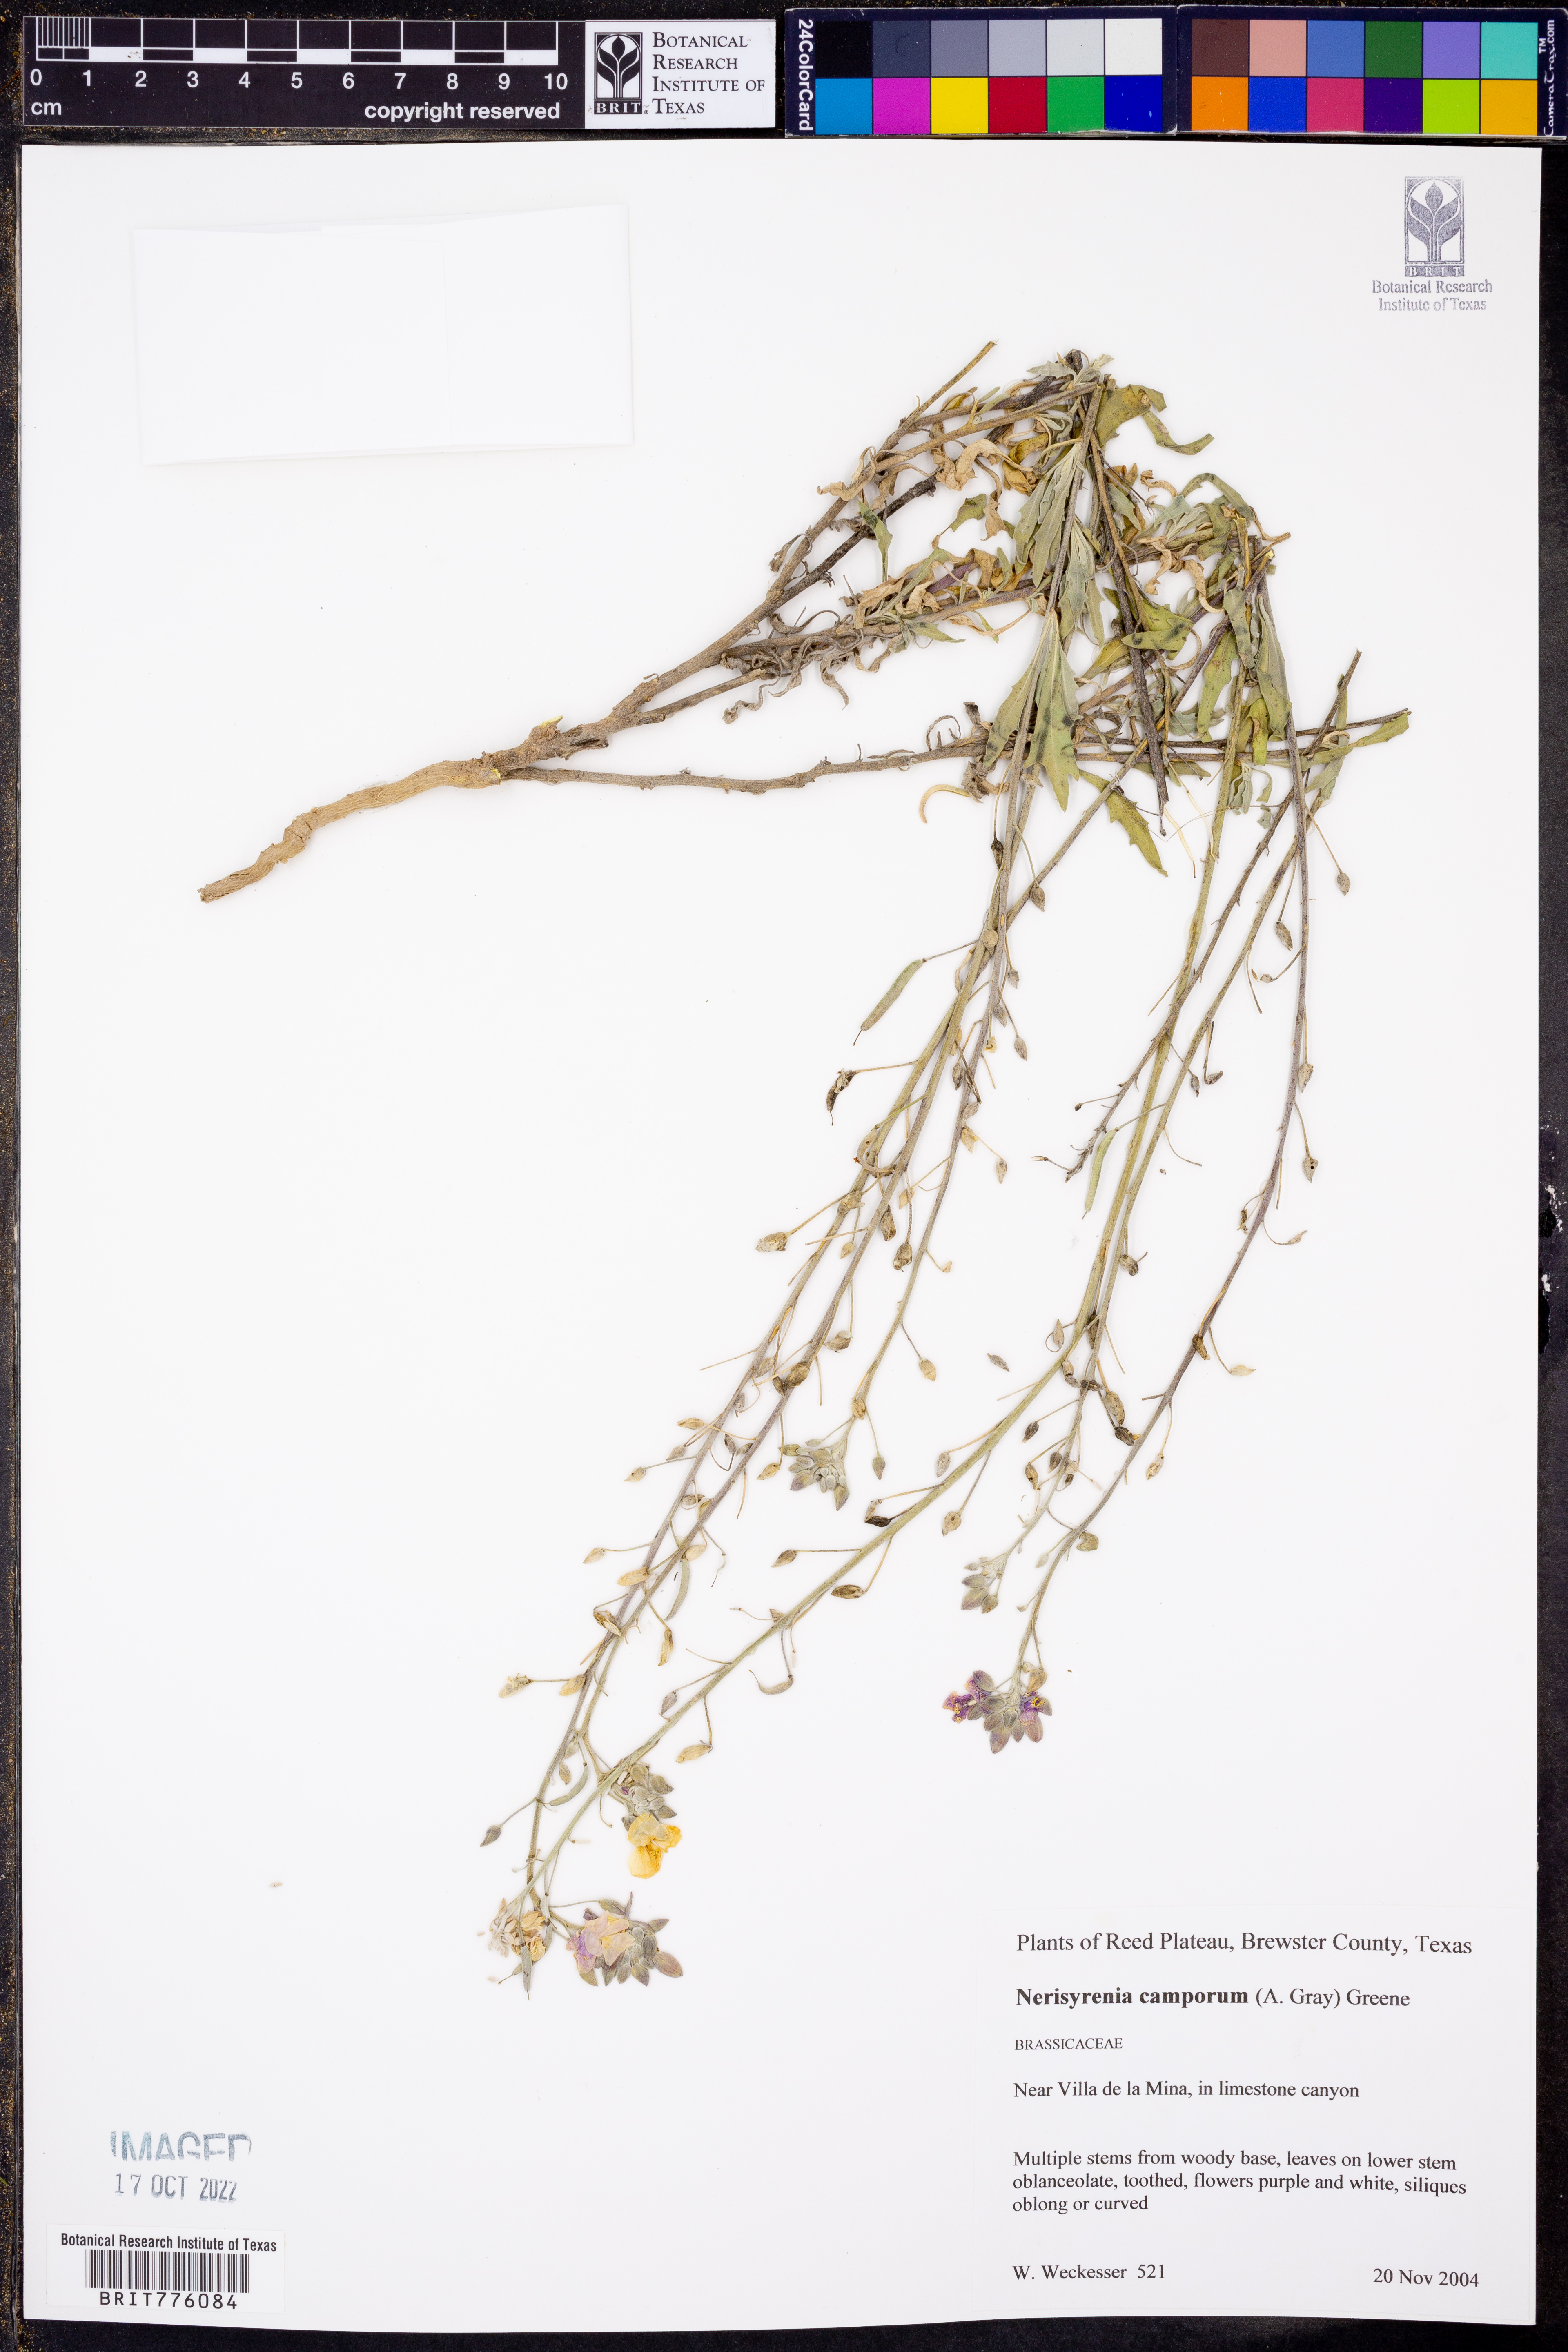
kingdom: Plantae
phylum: Tracheophyta
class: Magnoliopsida
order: Brassicales
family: Brassicaceae
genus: Nerisyrenia
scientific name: Nerisyrenia camporum
